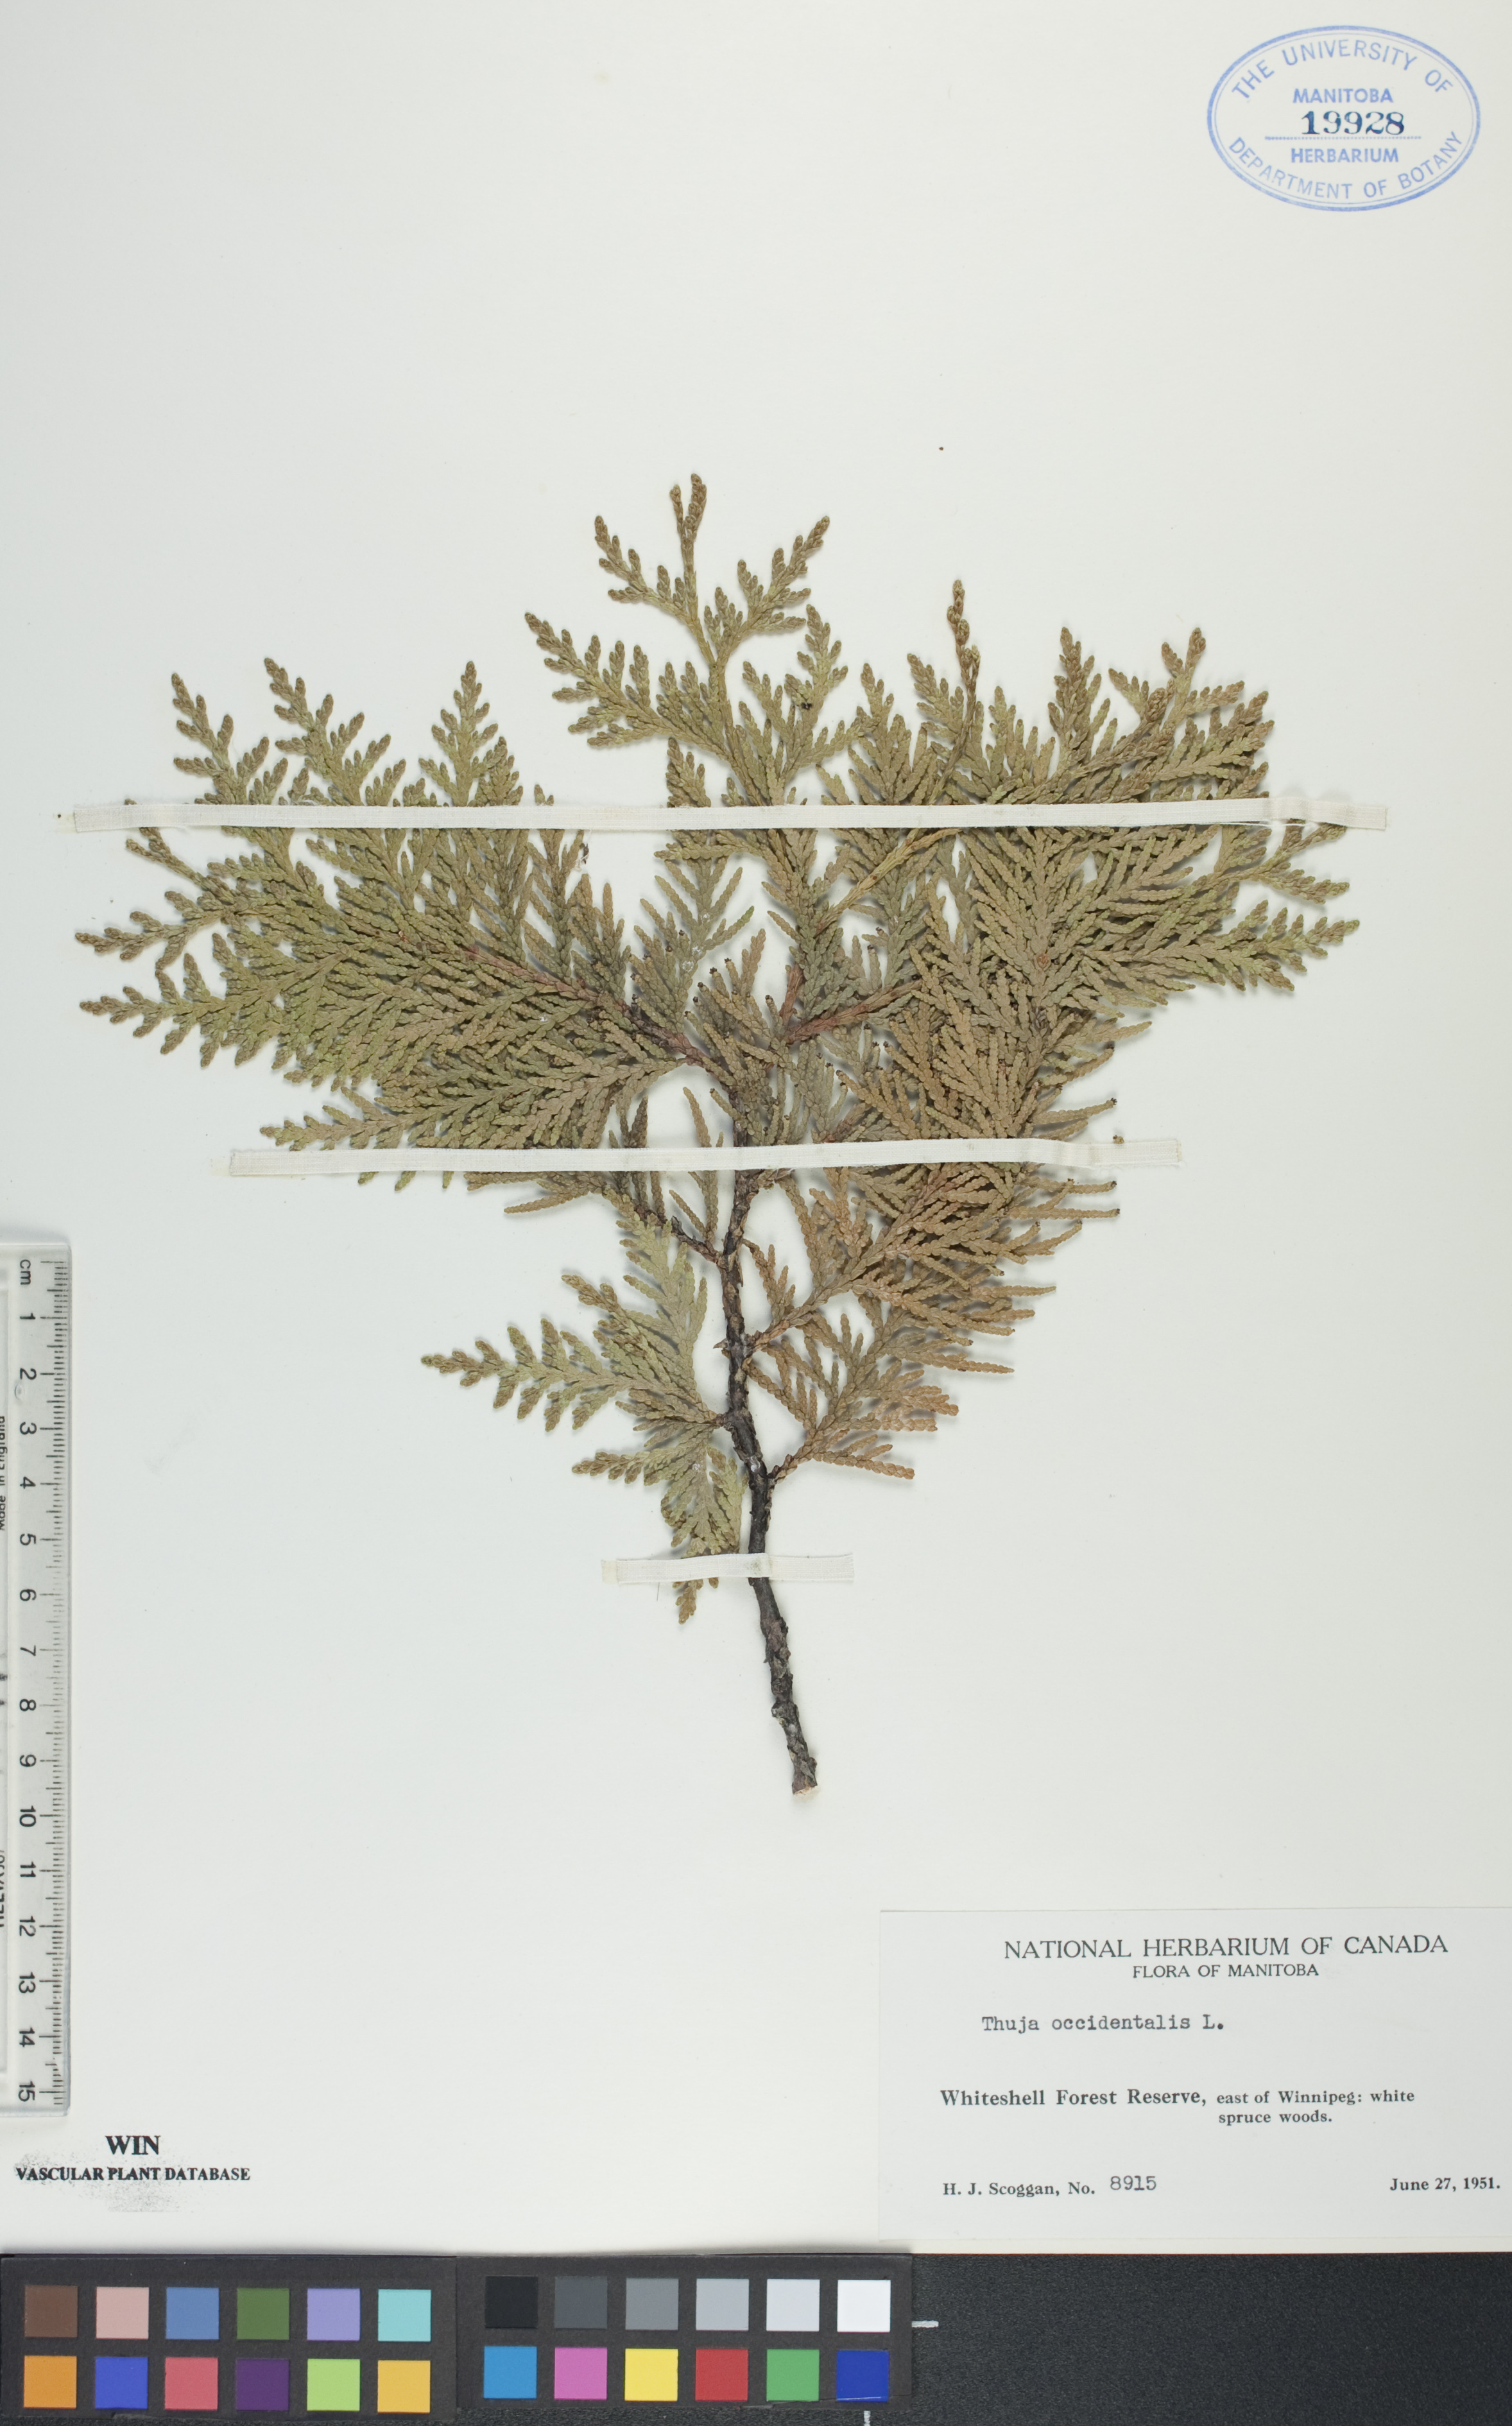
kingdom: Plantae
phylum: Tracheophyta
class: Pinopsida
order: Pinales
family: Cupressaceae
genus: Thuja
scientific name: Thuja occidentalis
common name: Northern white-cedar
